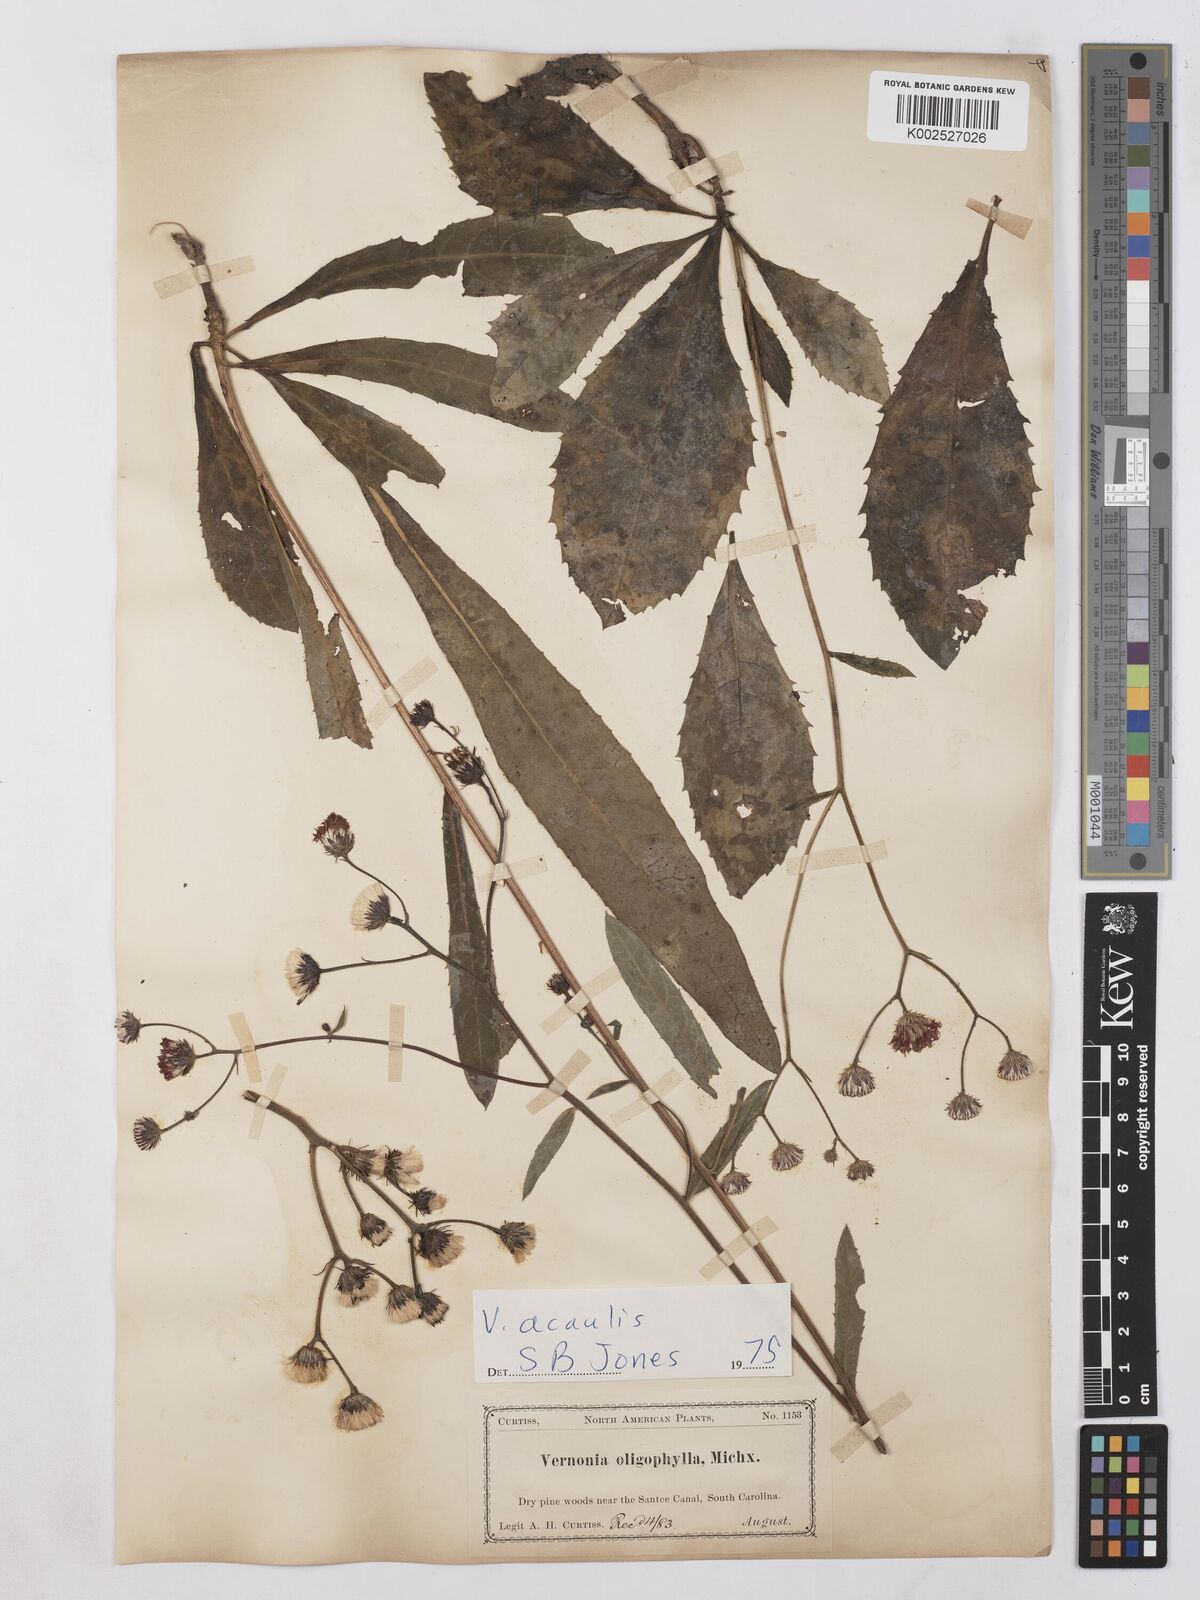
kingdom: Plantae
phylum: Tracheophyta
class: Magnoliopsida
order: Asterales
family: Asteraceae
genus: Vernonia
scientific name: Vernonia
